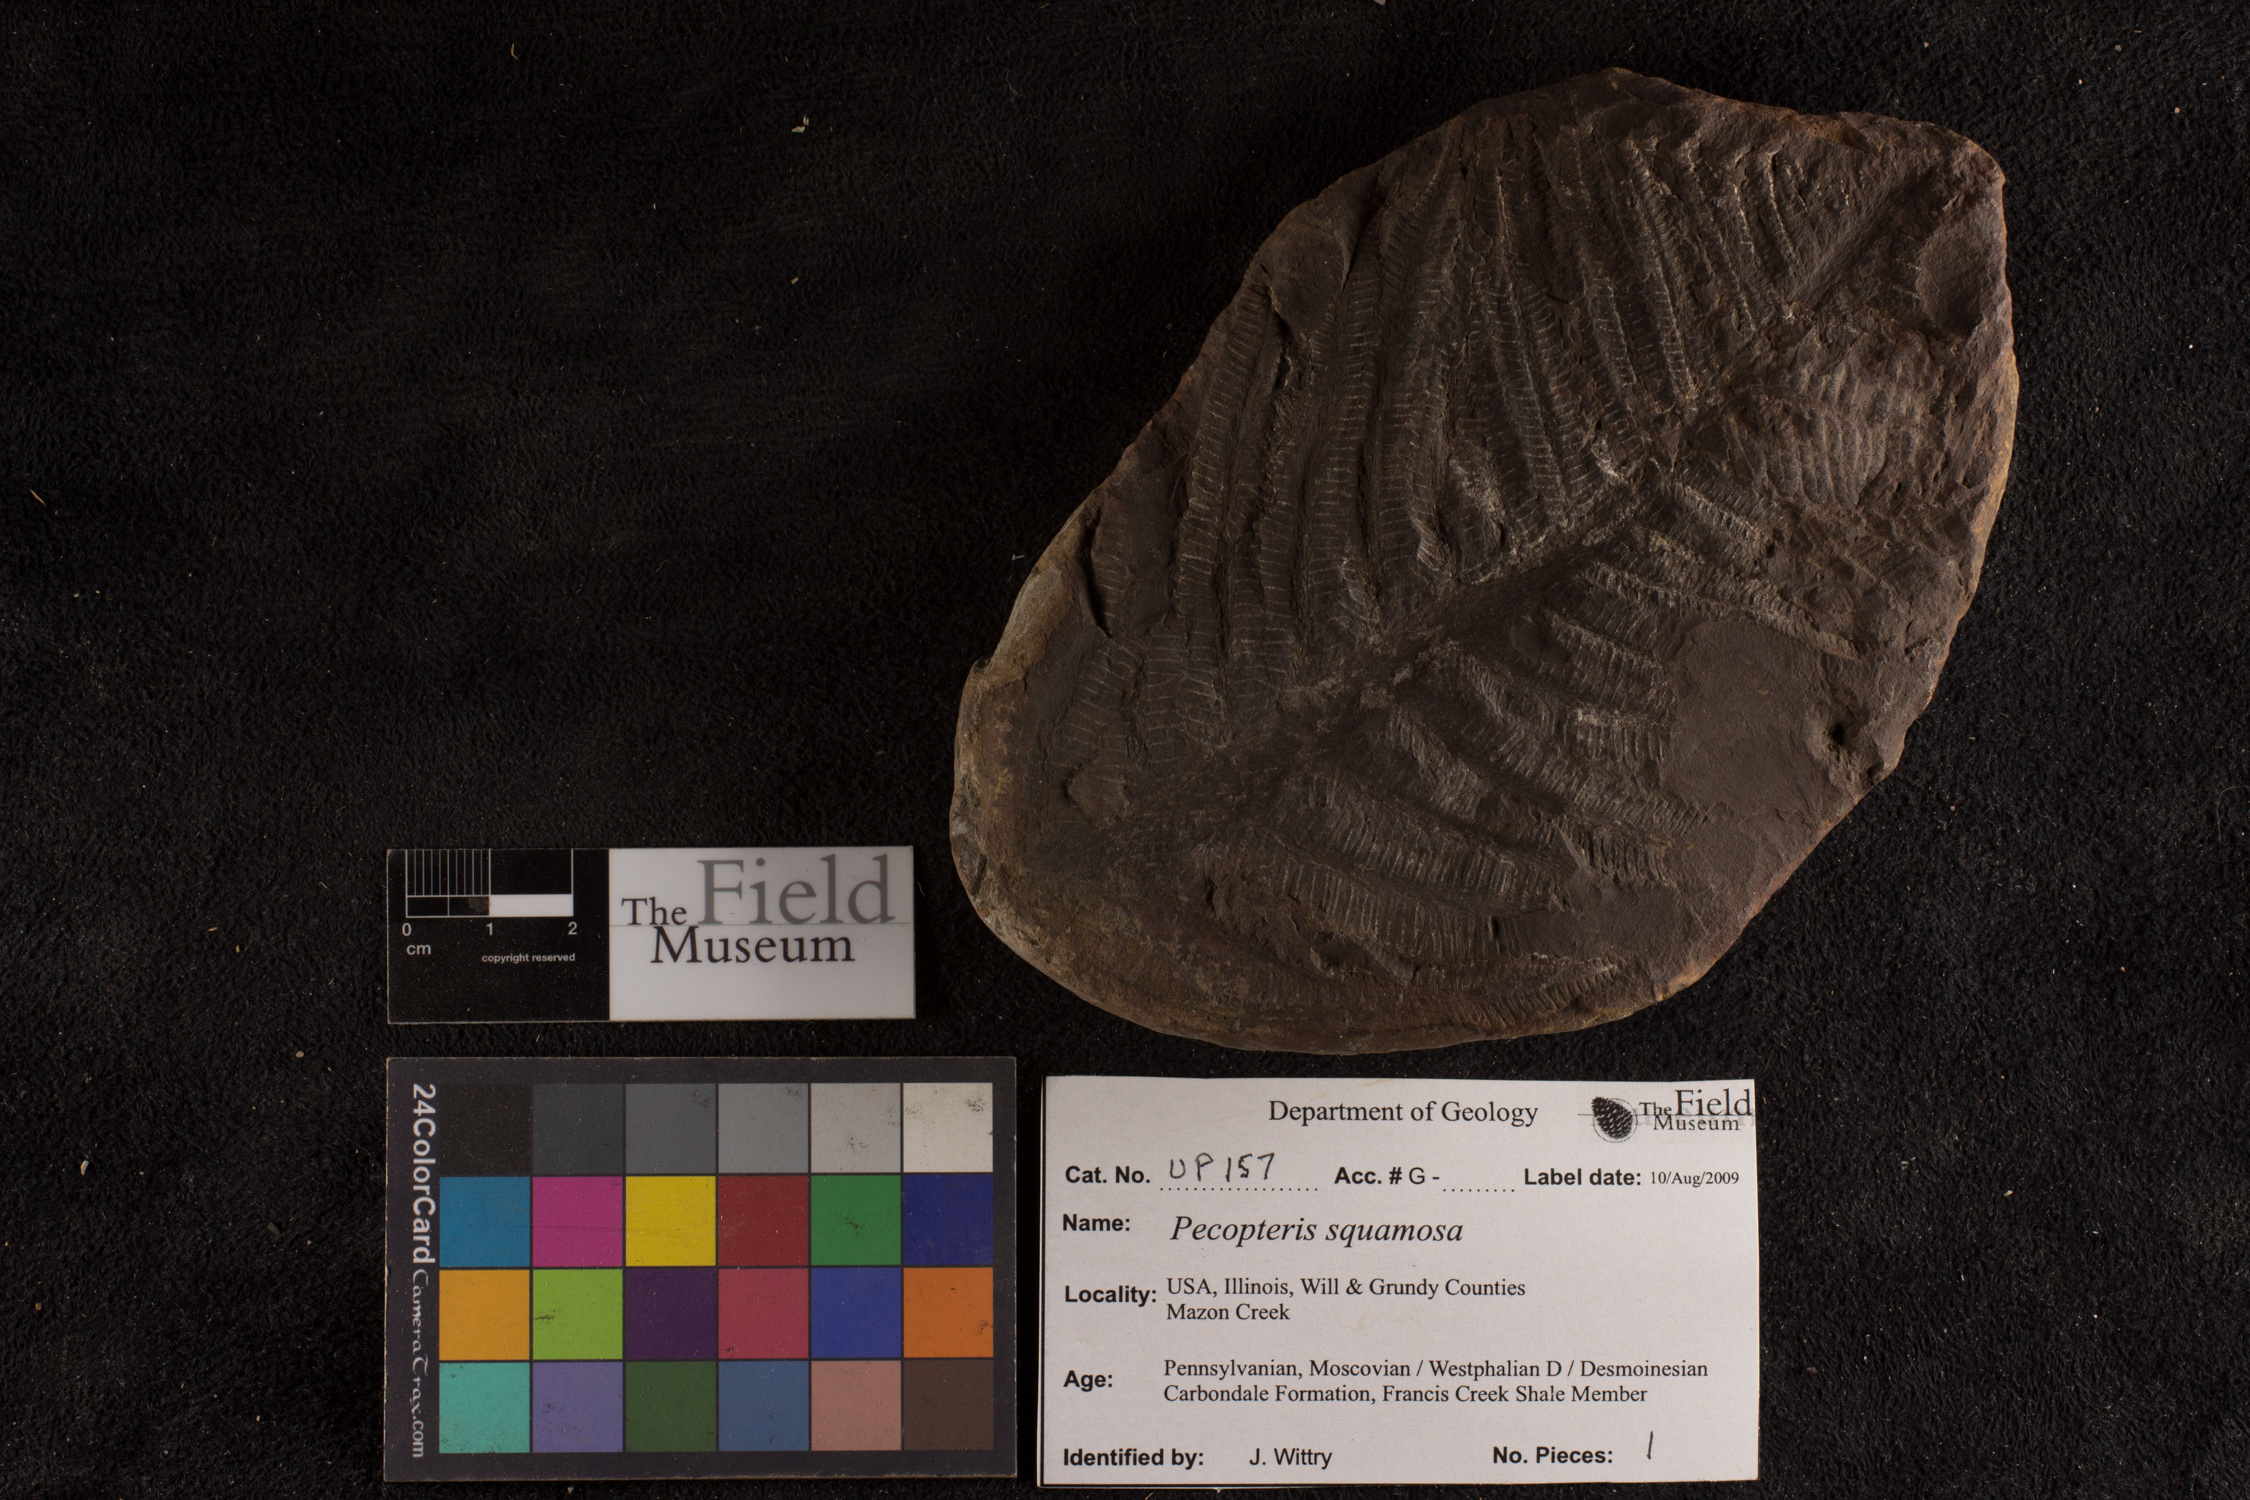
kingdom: Plantae
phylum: Tracheophyta
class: Polypodiopsida
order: Marattiales
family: Asterothecaceae
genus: Pecopteris
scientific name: Pecopteris
